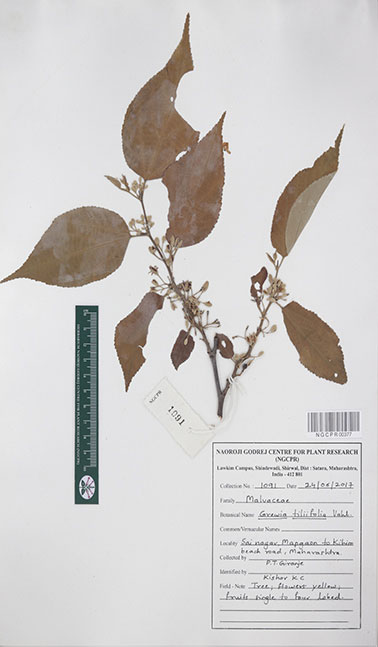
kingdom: Plantae
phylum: Tracheophyta
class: Magnoliopsida
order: Malvales
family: Malvaceae
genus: Grewia
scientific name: Grewia tiliifolia
